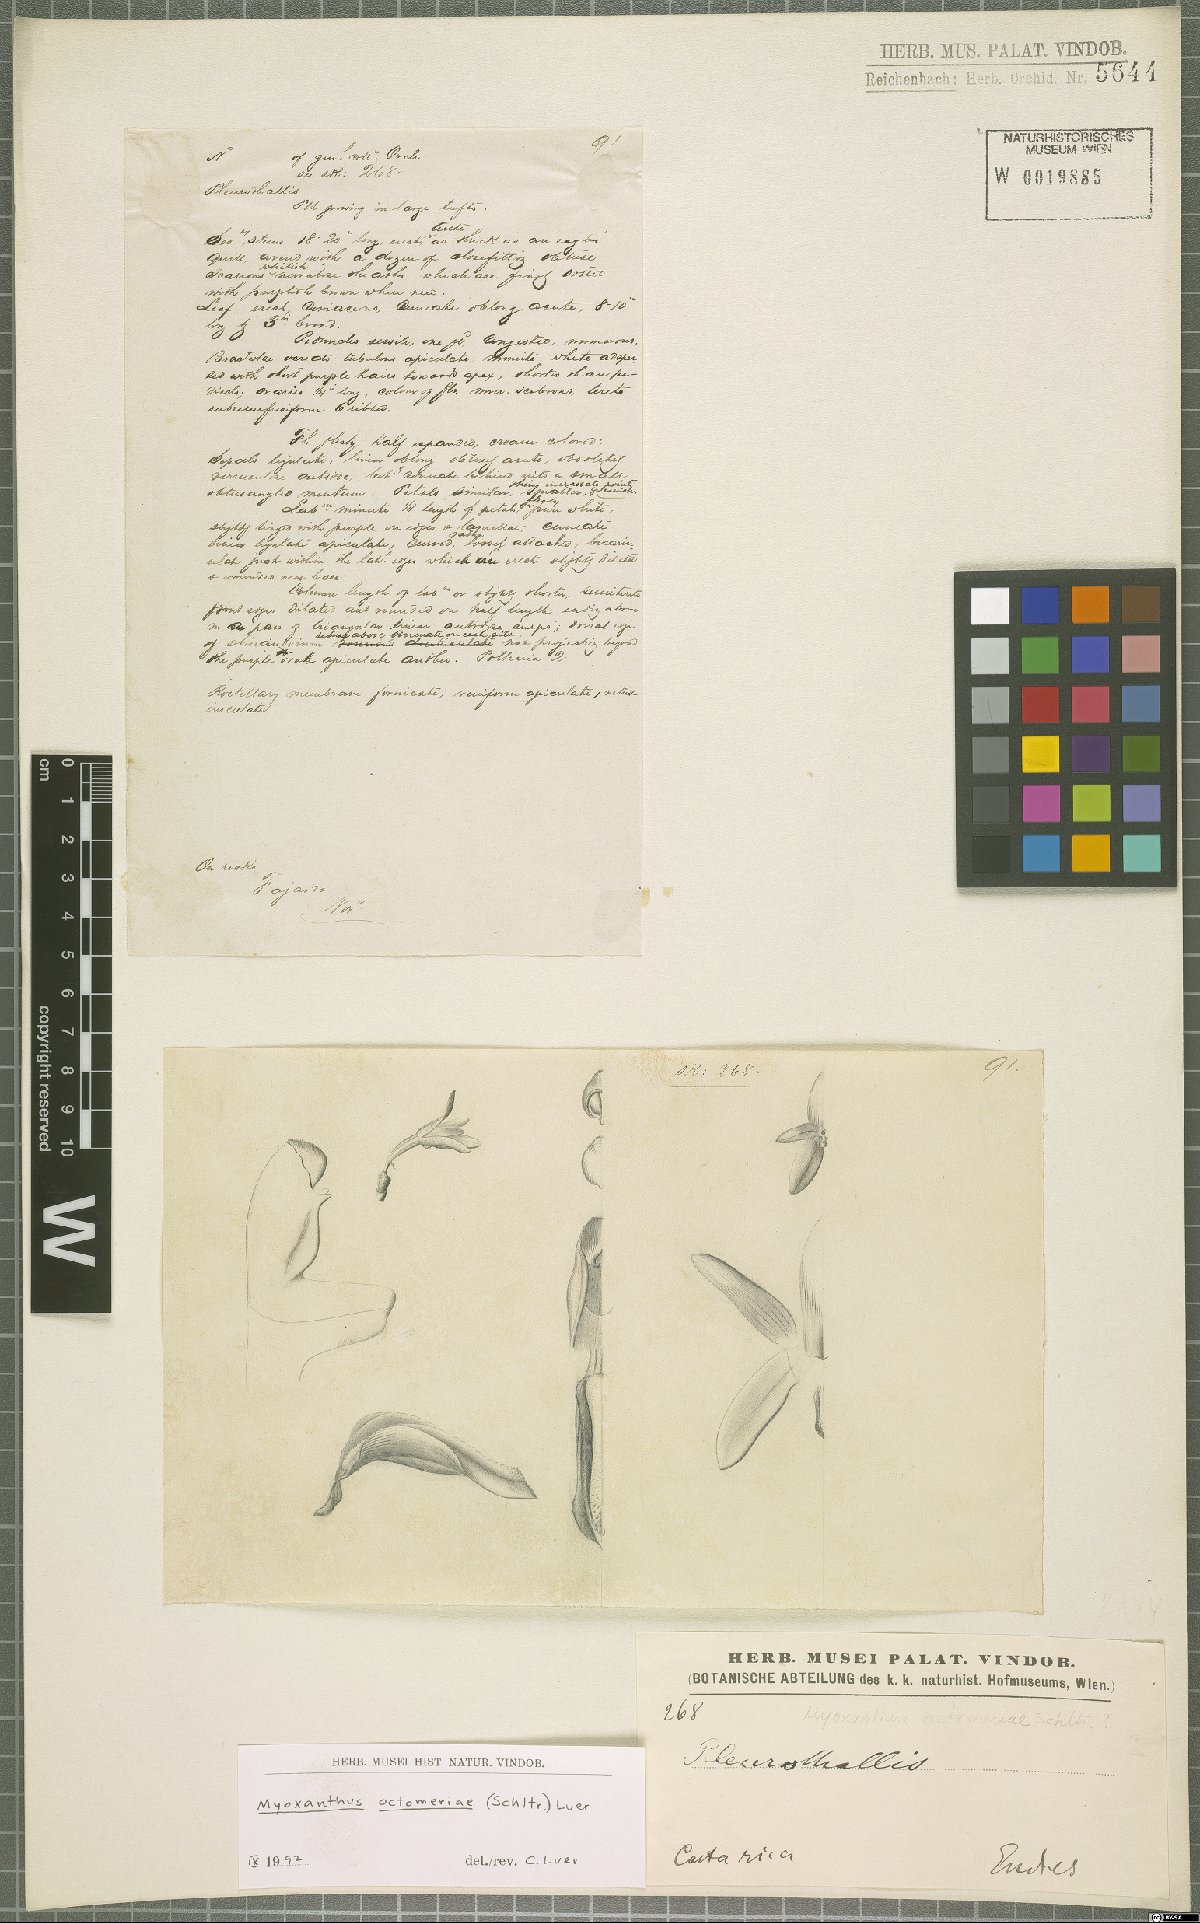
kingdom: Plantae
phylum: Tracheophyta
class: Liliopsida
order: Asparagales
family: Orchidaceae
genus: Myoxanthus
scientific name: Myoxanthus congestus
